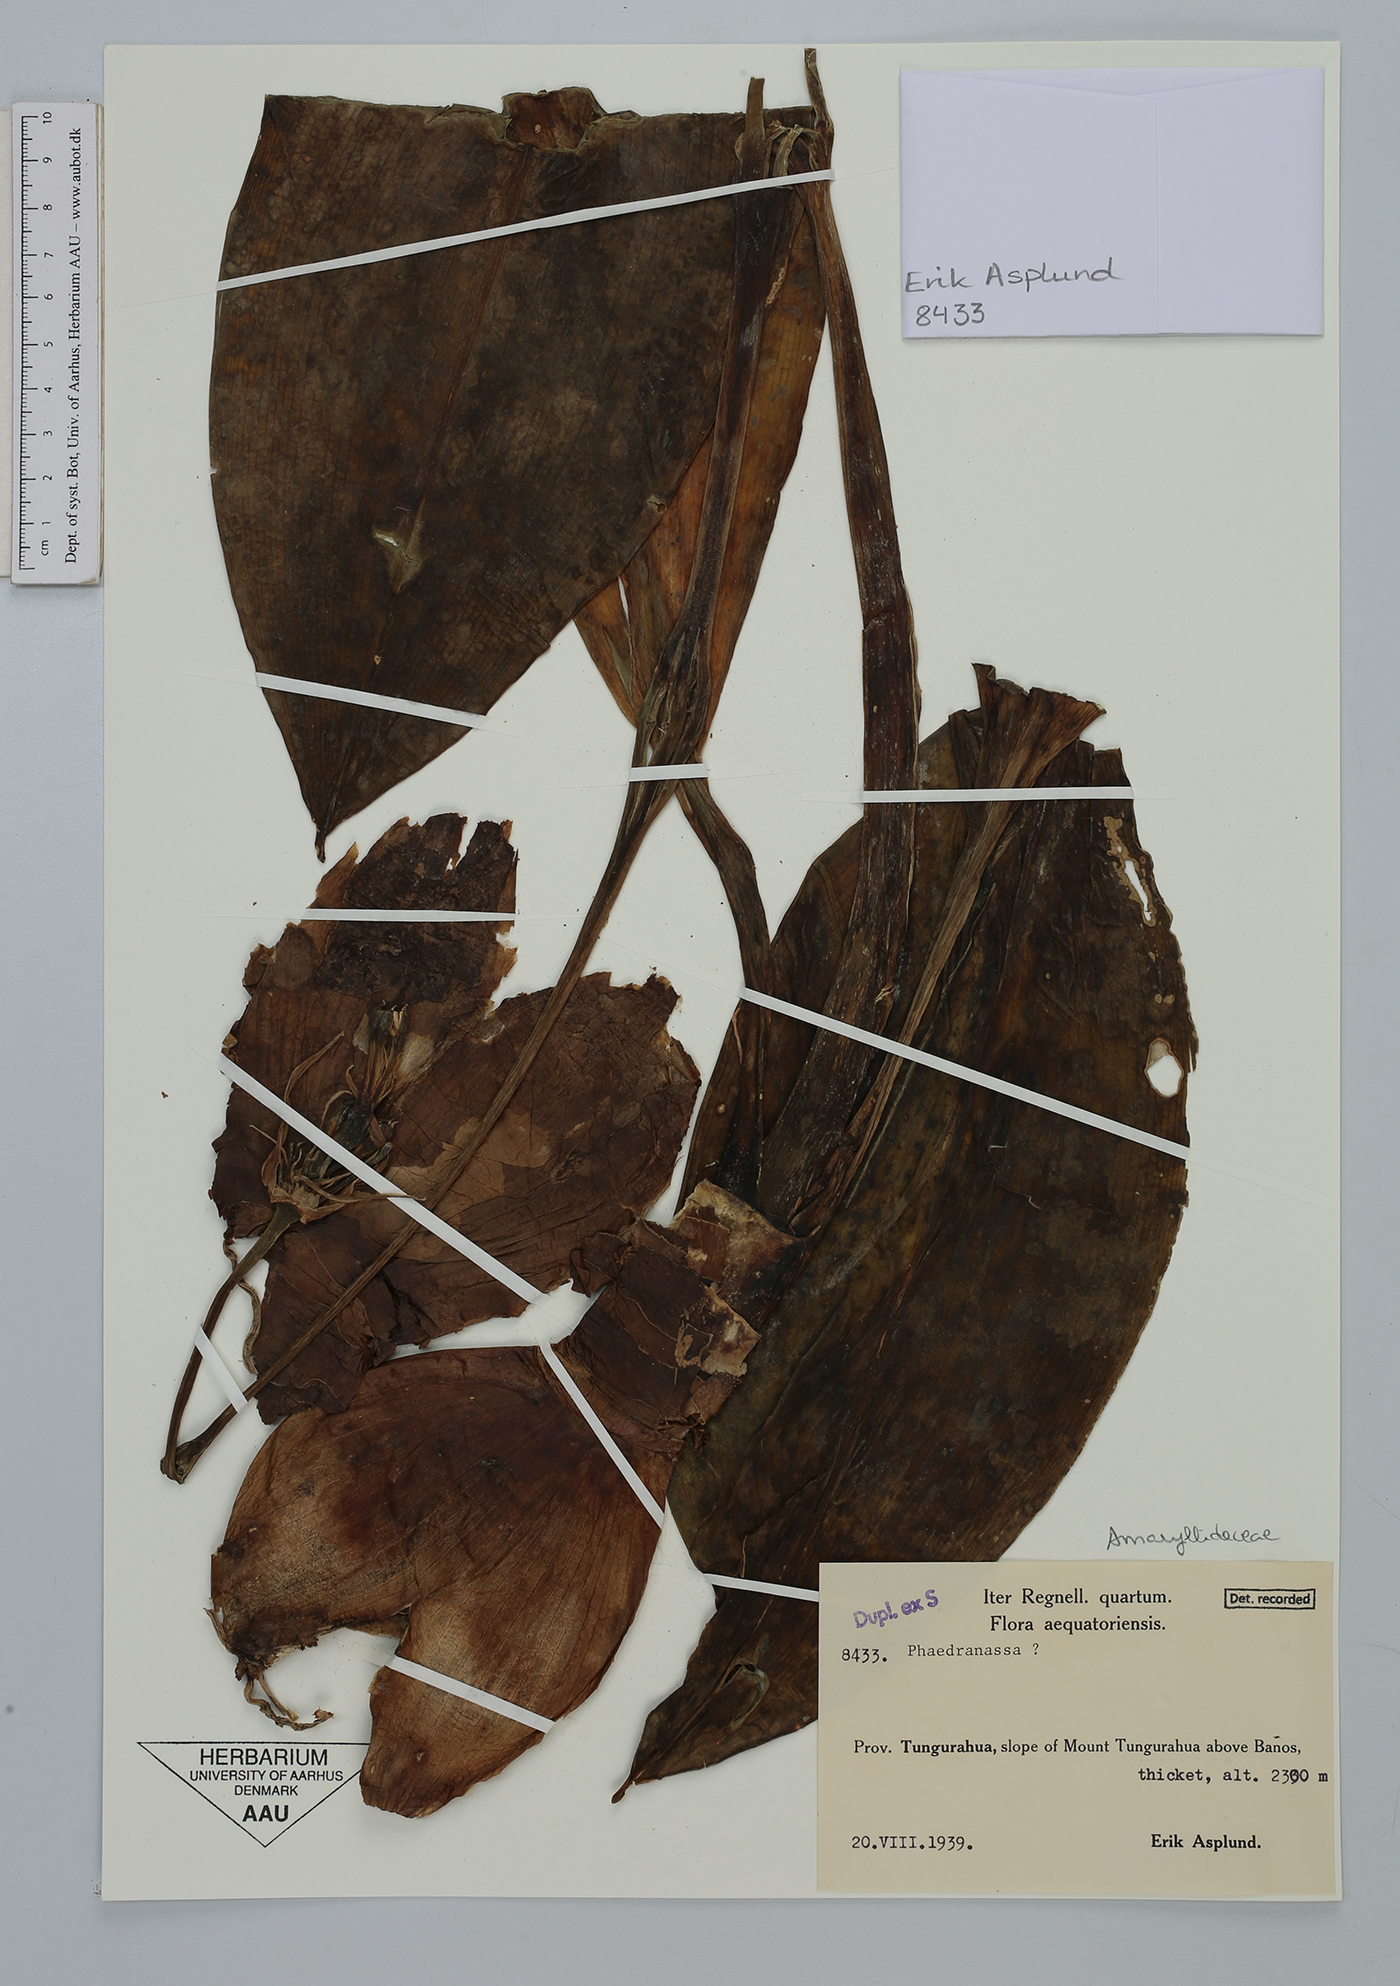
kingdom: Plantae
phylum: Tracheophyta
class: Liliopsida
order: Asparagales
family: Amaryllidaceae
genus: Phaedranassa
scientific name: Phaedranassa
